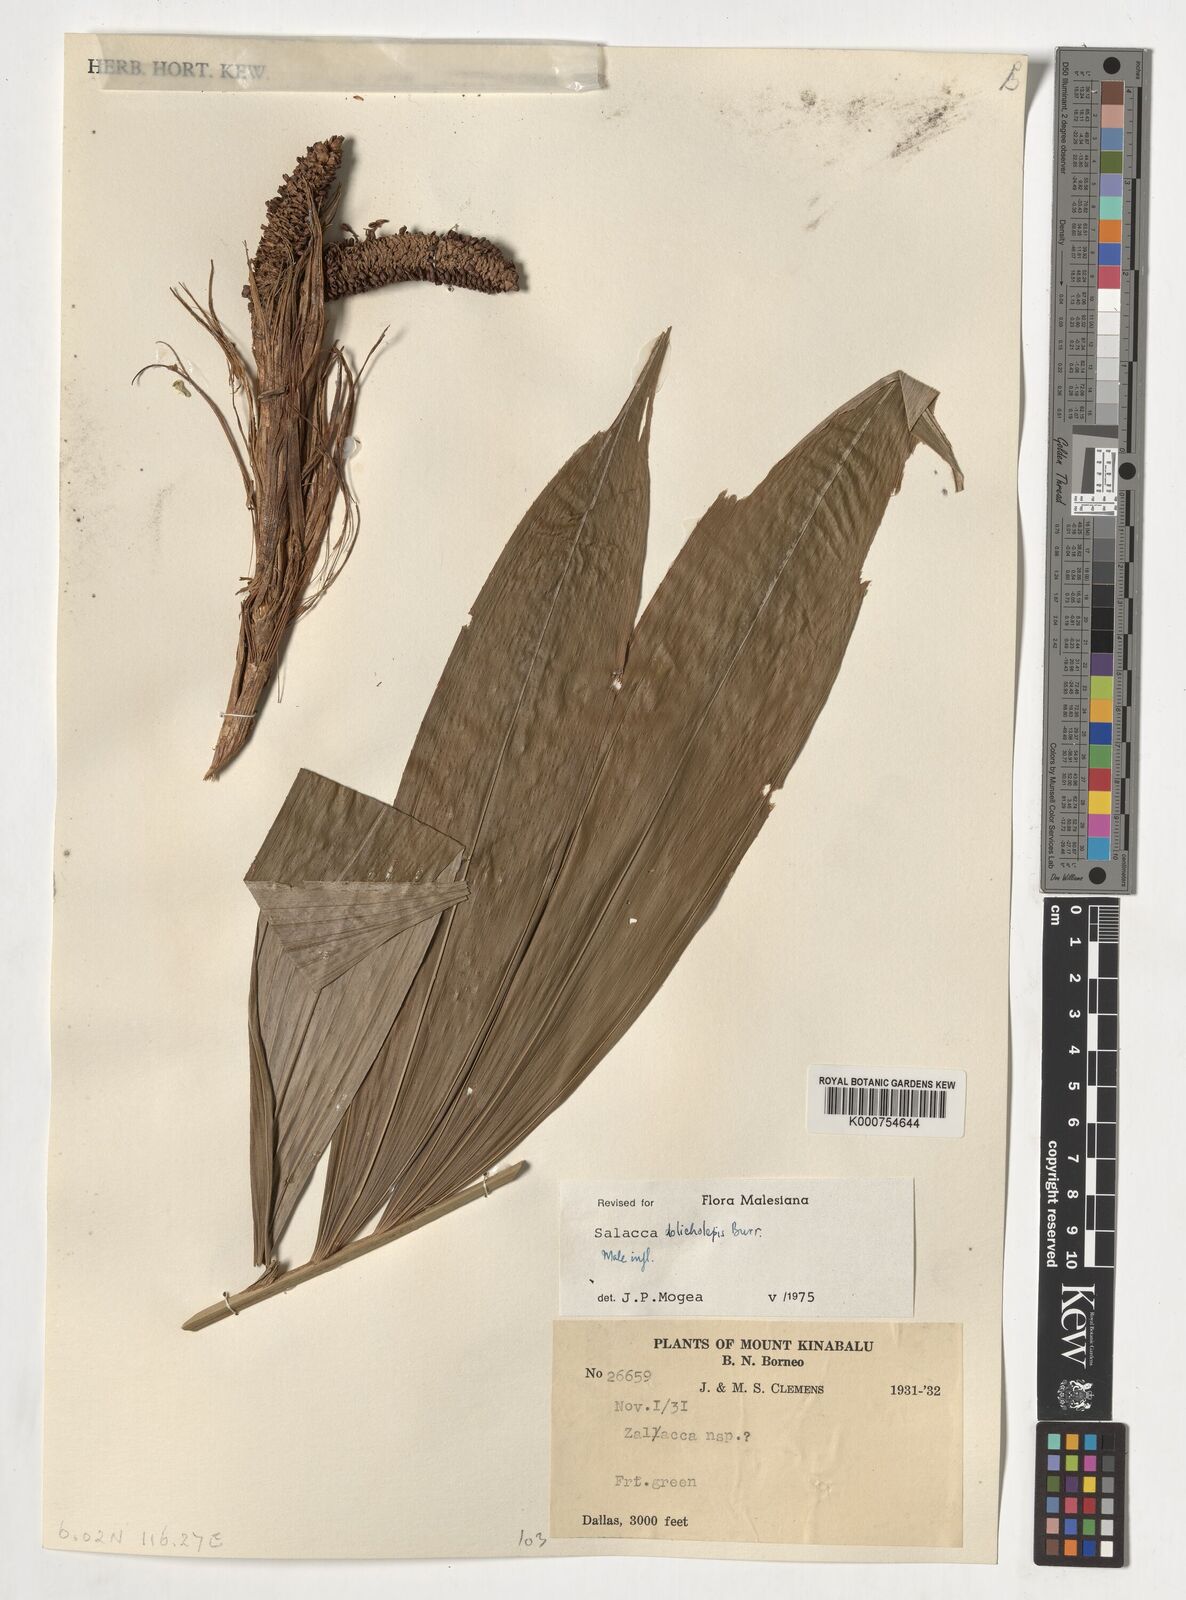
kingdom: Plantae
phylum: Tracheophyta
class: Liliopsida
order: Arecales
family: Arecaceae
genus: Salacca
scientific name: Salacca dolicholepis
